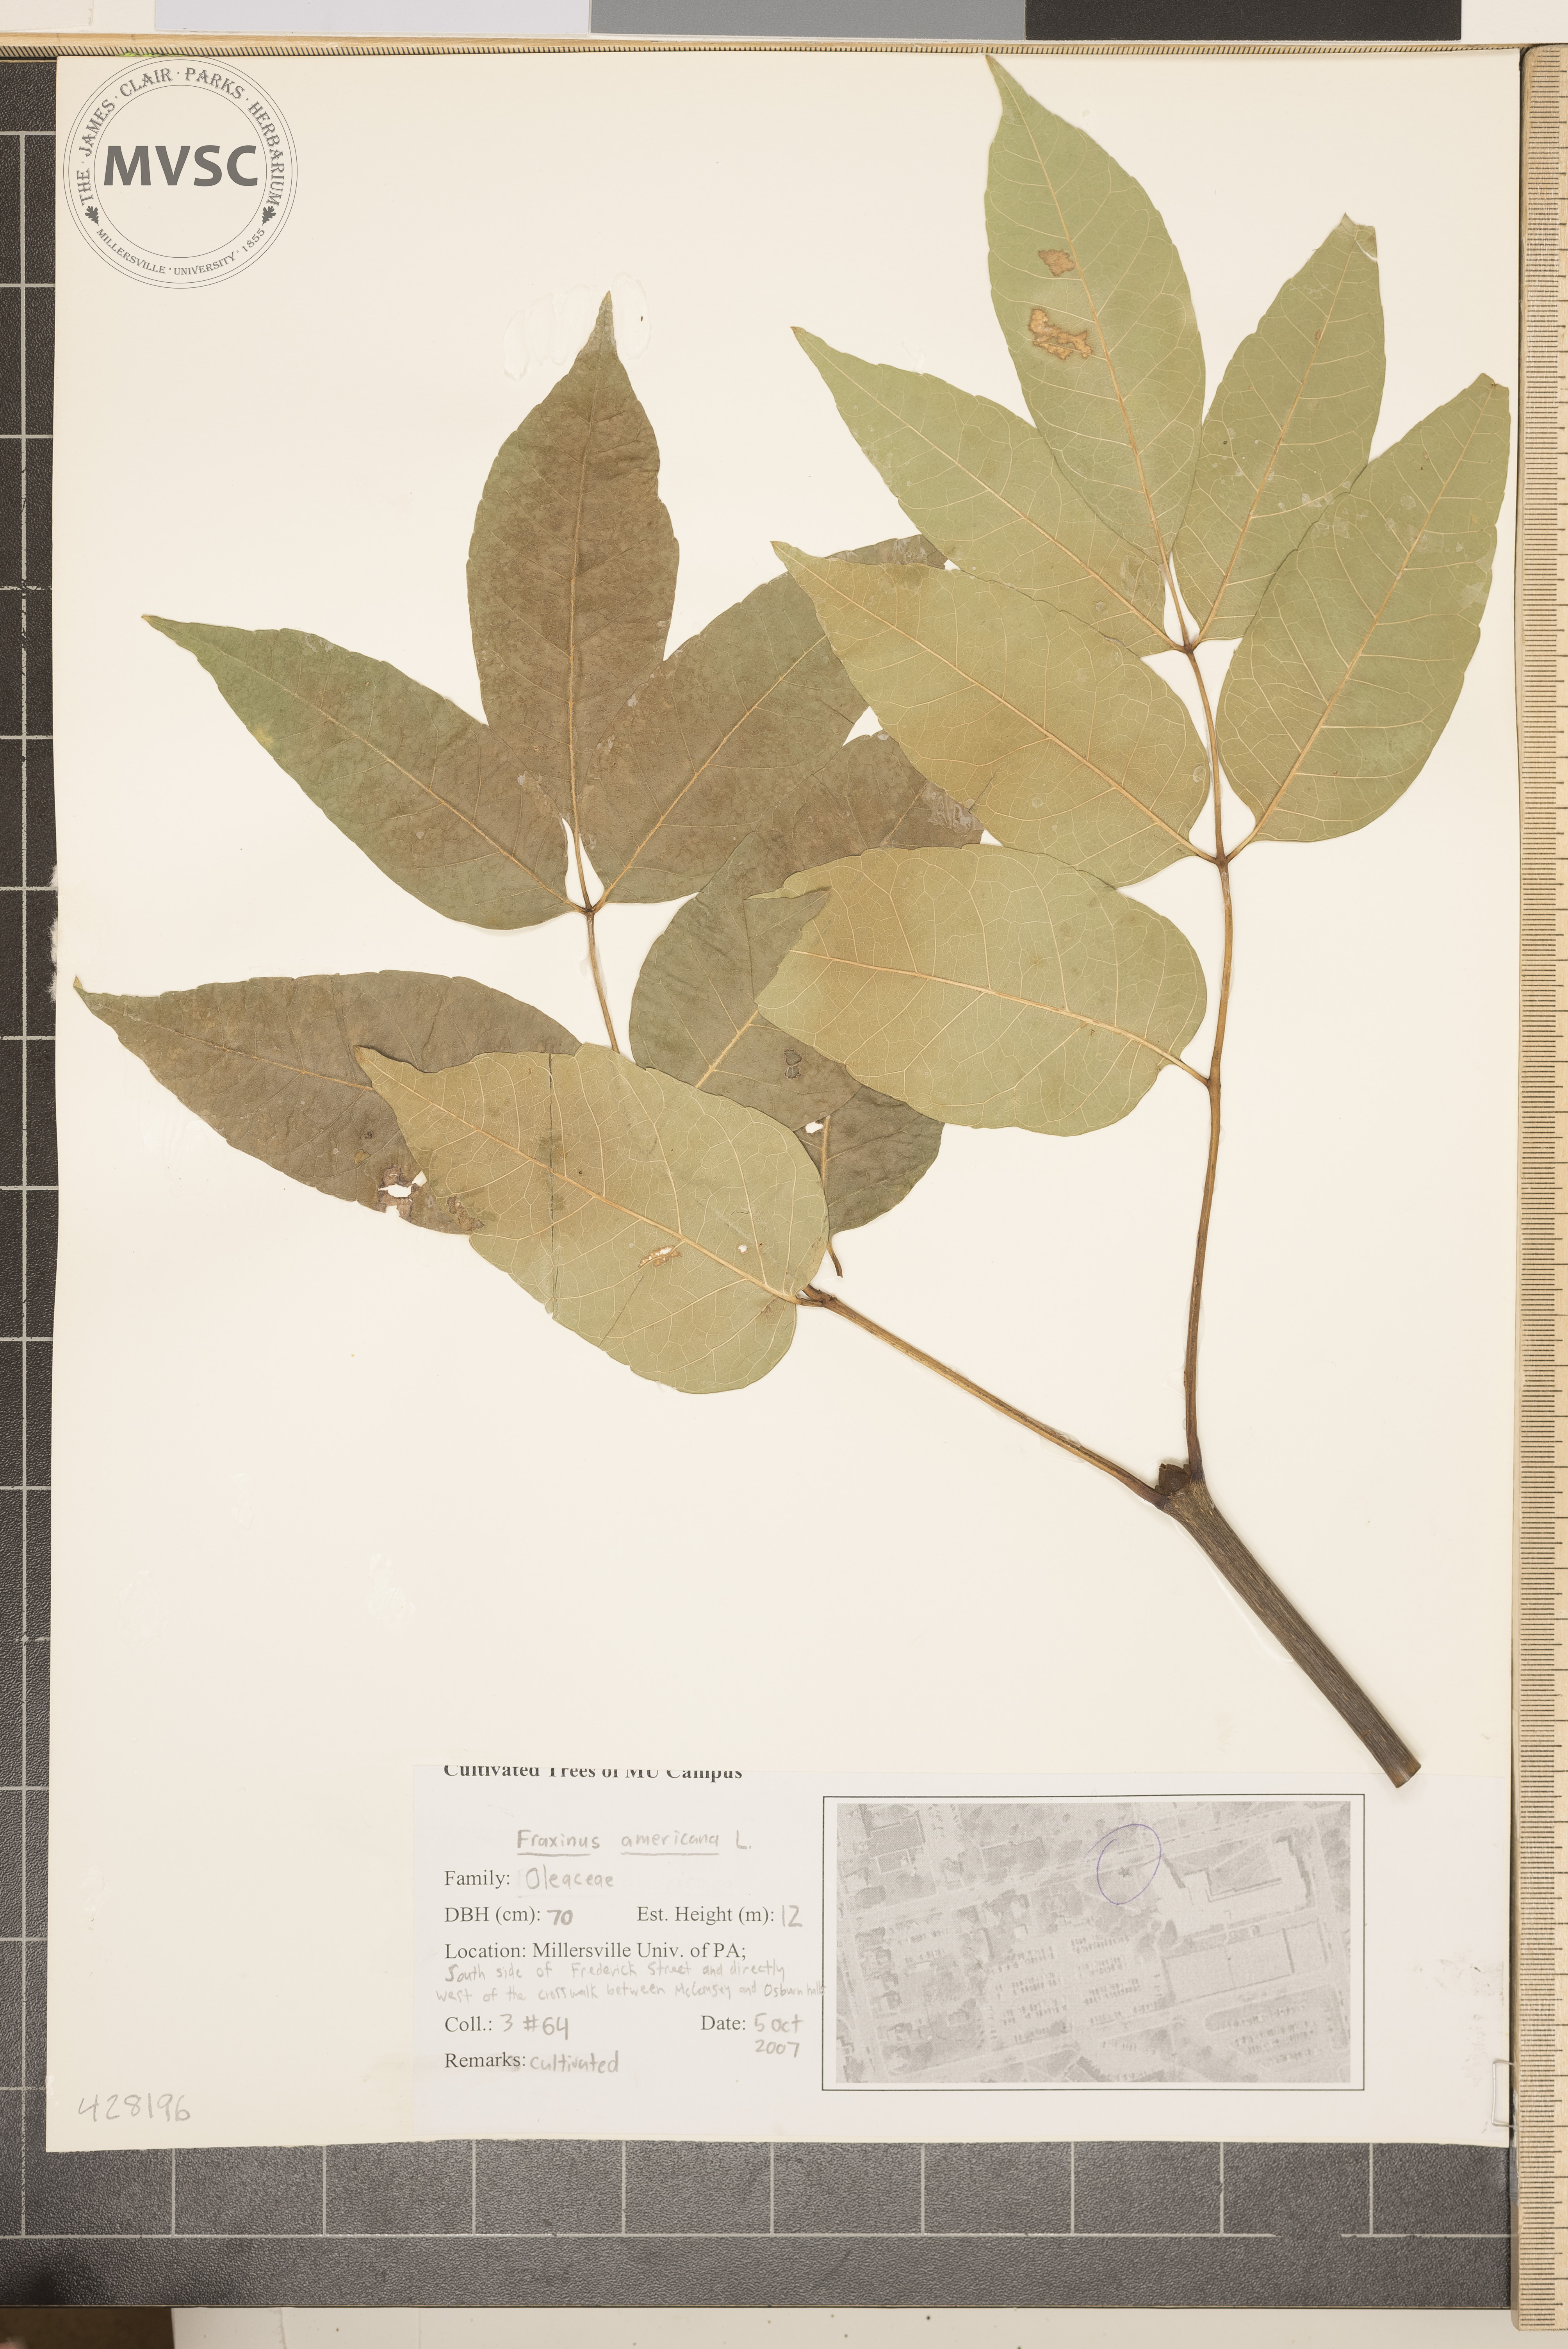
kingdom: Plantae
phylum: Tracheophyta
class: Magnoliopsida
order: Lamiales
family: Oleaceae
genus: Fraxinus
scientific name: Fraxinus americana
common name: White Ash
